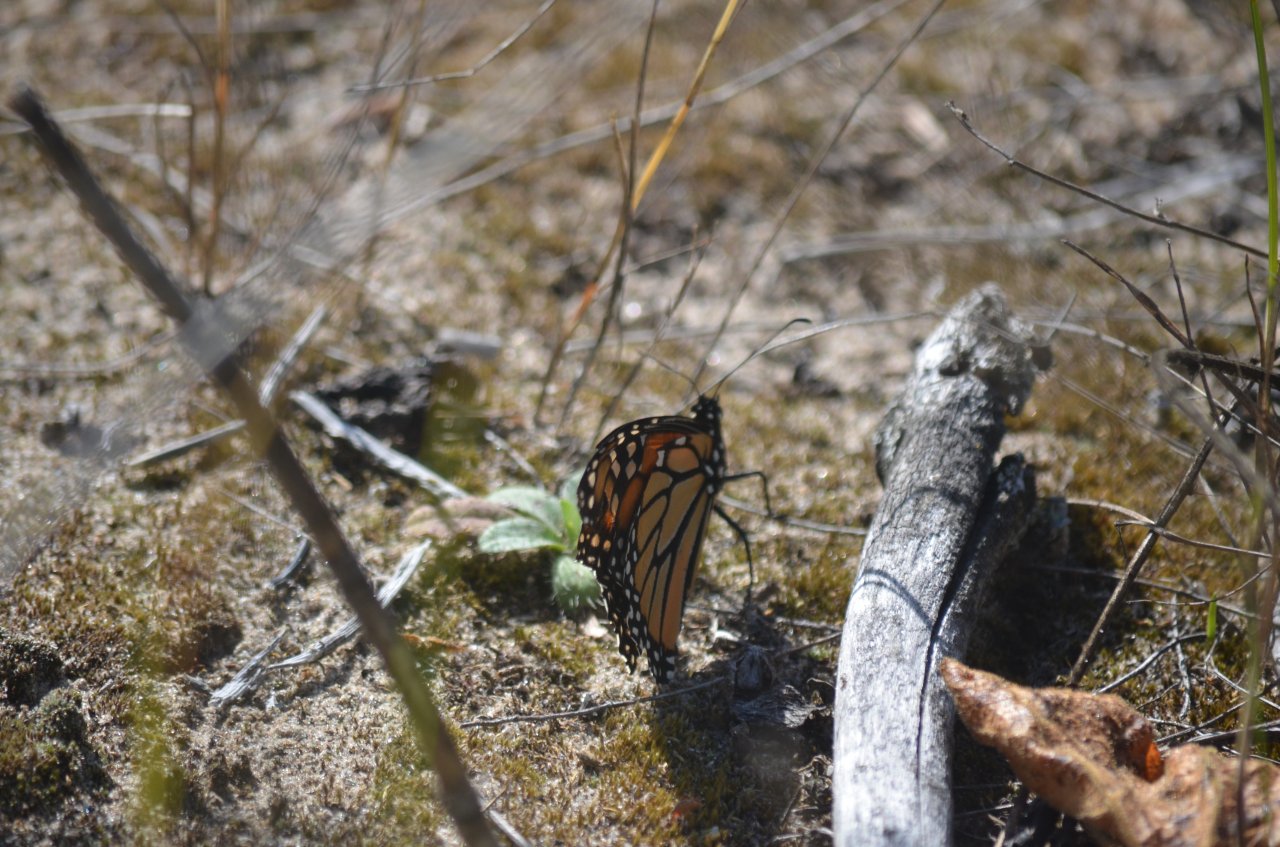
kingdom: Animalia
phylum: Arthropoda
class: Insecta
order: Lepidoptera
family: Nymphalidae
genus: Danaus
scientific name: Danaus plexippus
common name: Monarch
